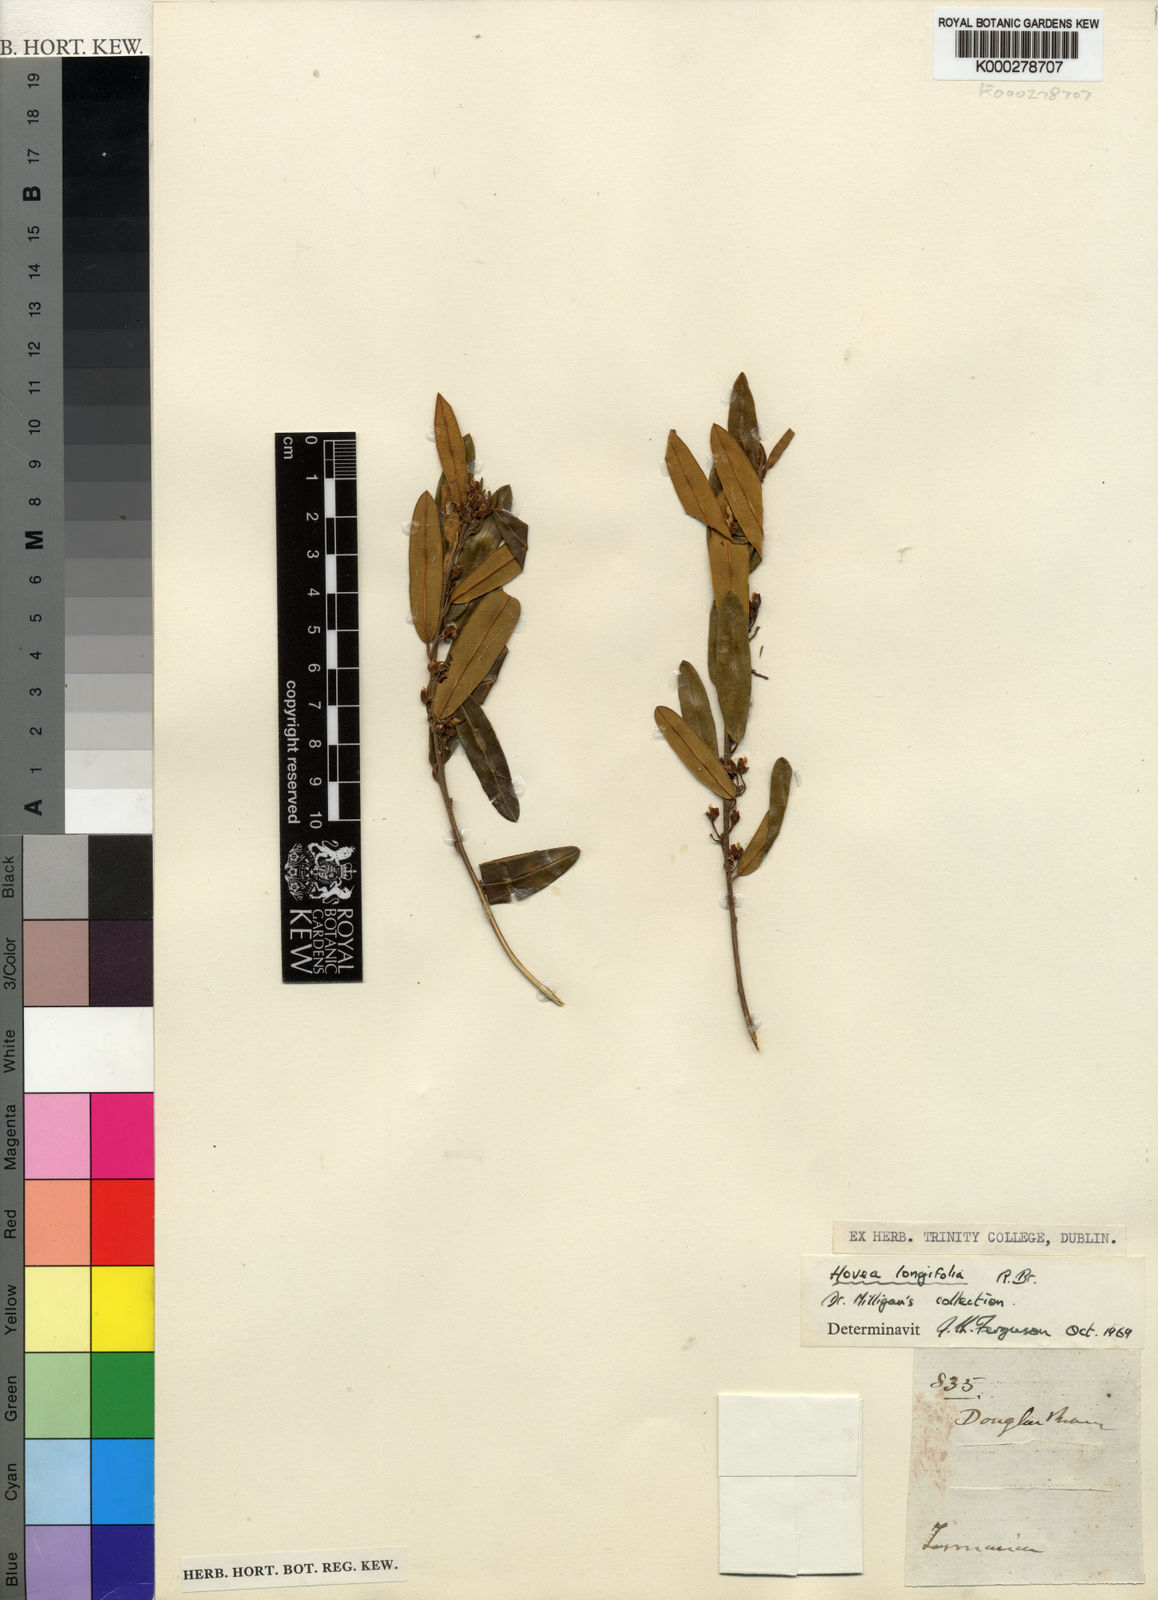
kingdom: Plantae
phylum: Tracheophyta
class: Magnoliopsida
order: Fabales
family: Fabaceae
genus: Hovea
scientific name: Hovea longifolia
